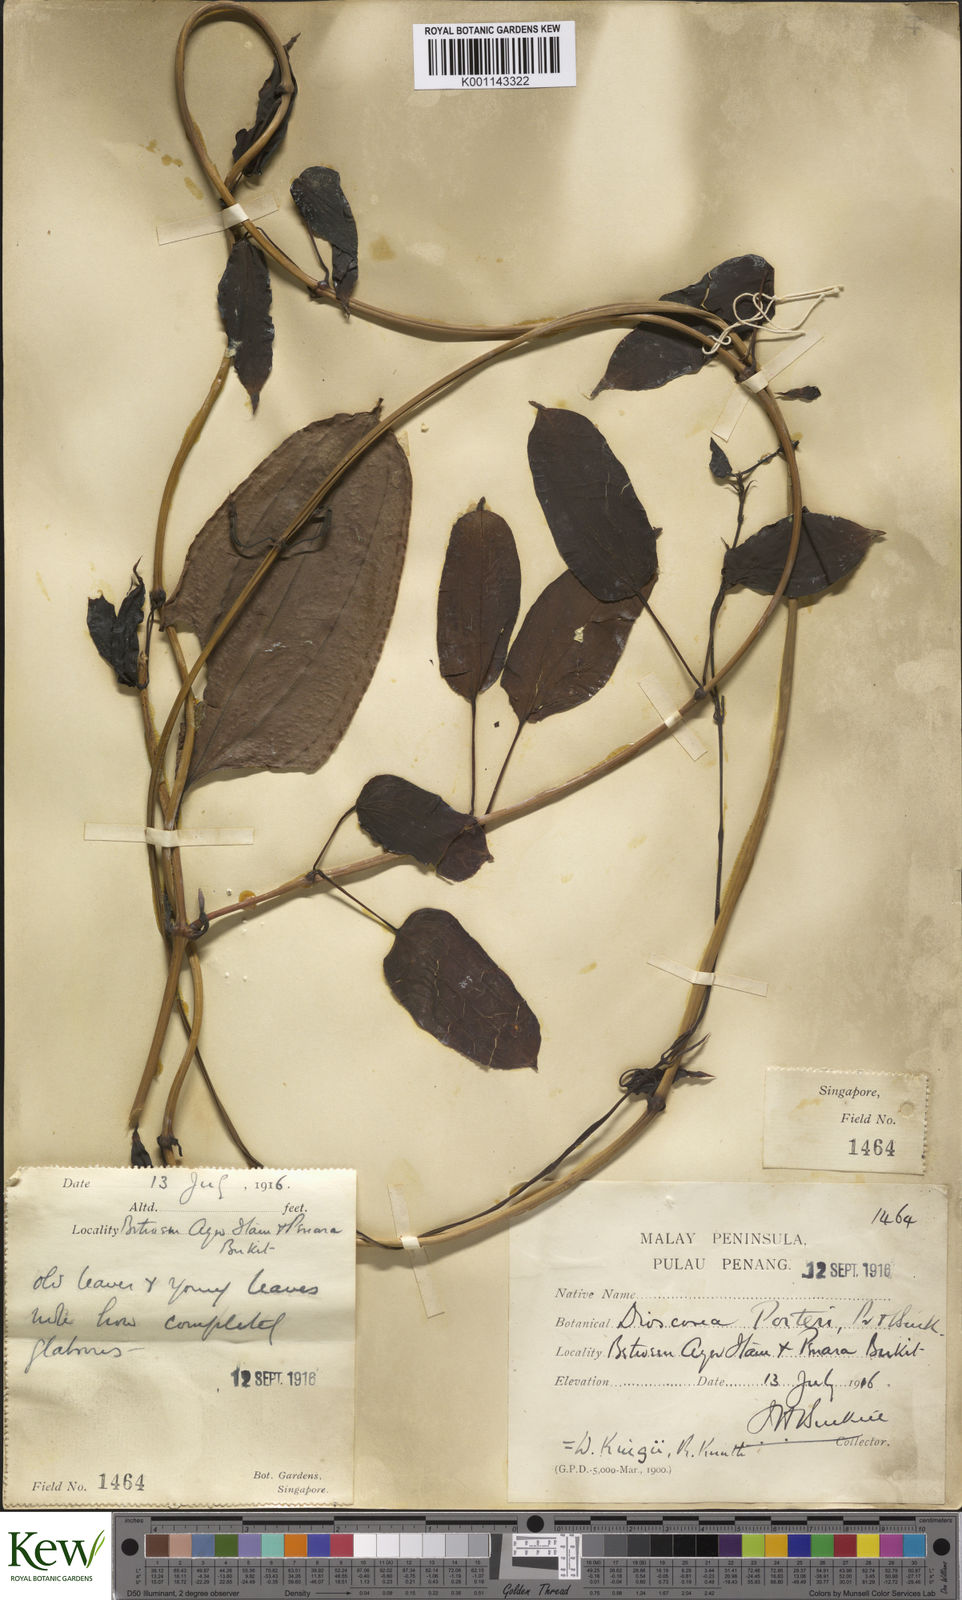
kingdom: Plantae
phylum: Tracheophyta
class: Liliopsida
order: Dioscoreales
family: Dioscoreaceae
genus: Dioscorea
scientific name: Dioscorea kingii
